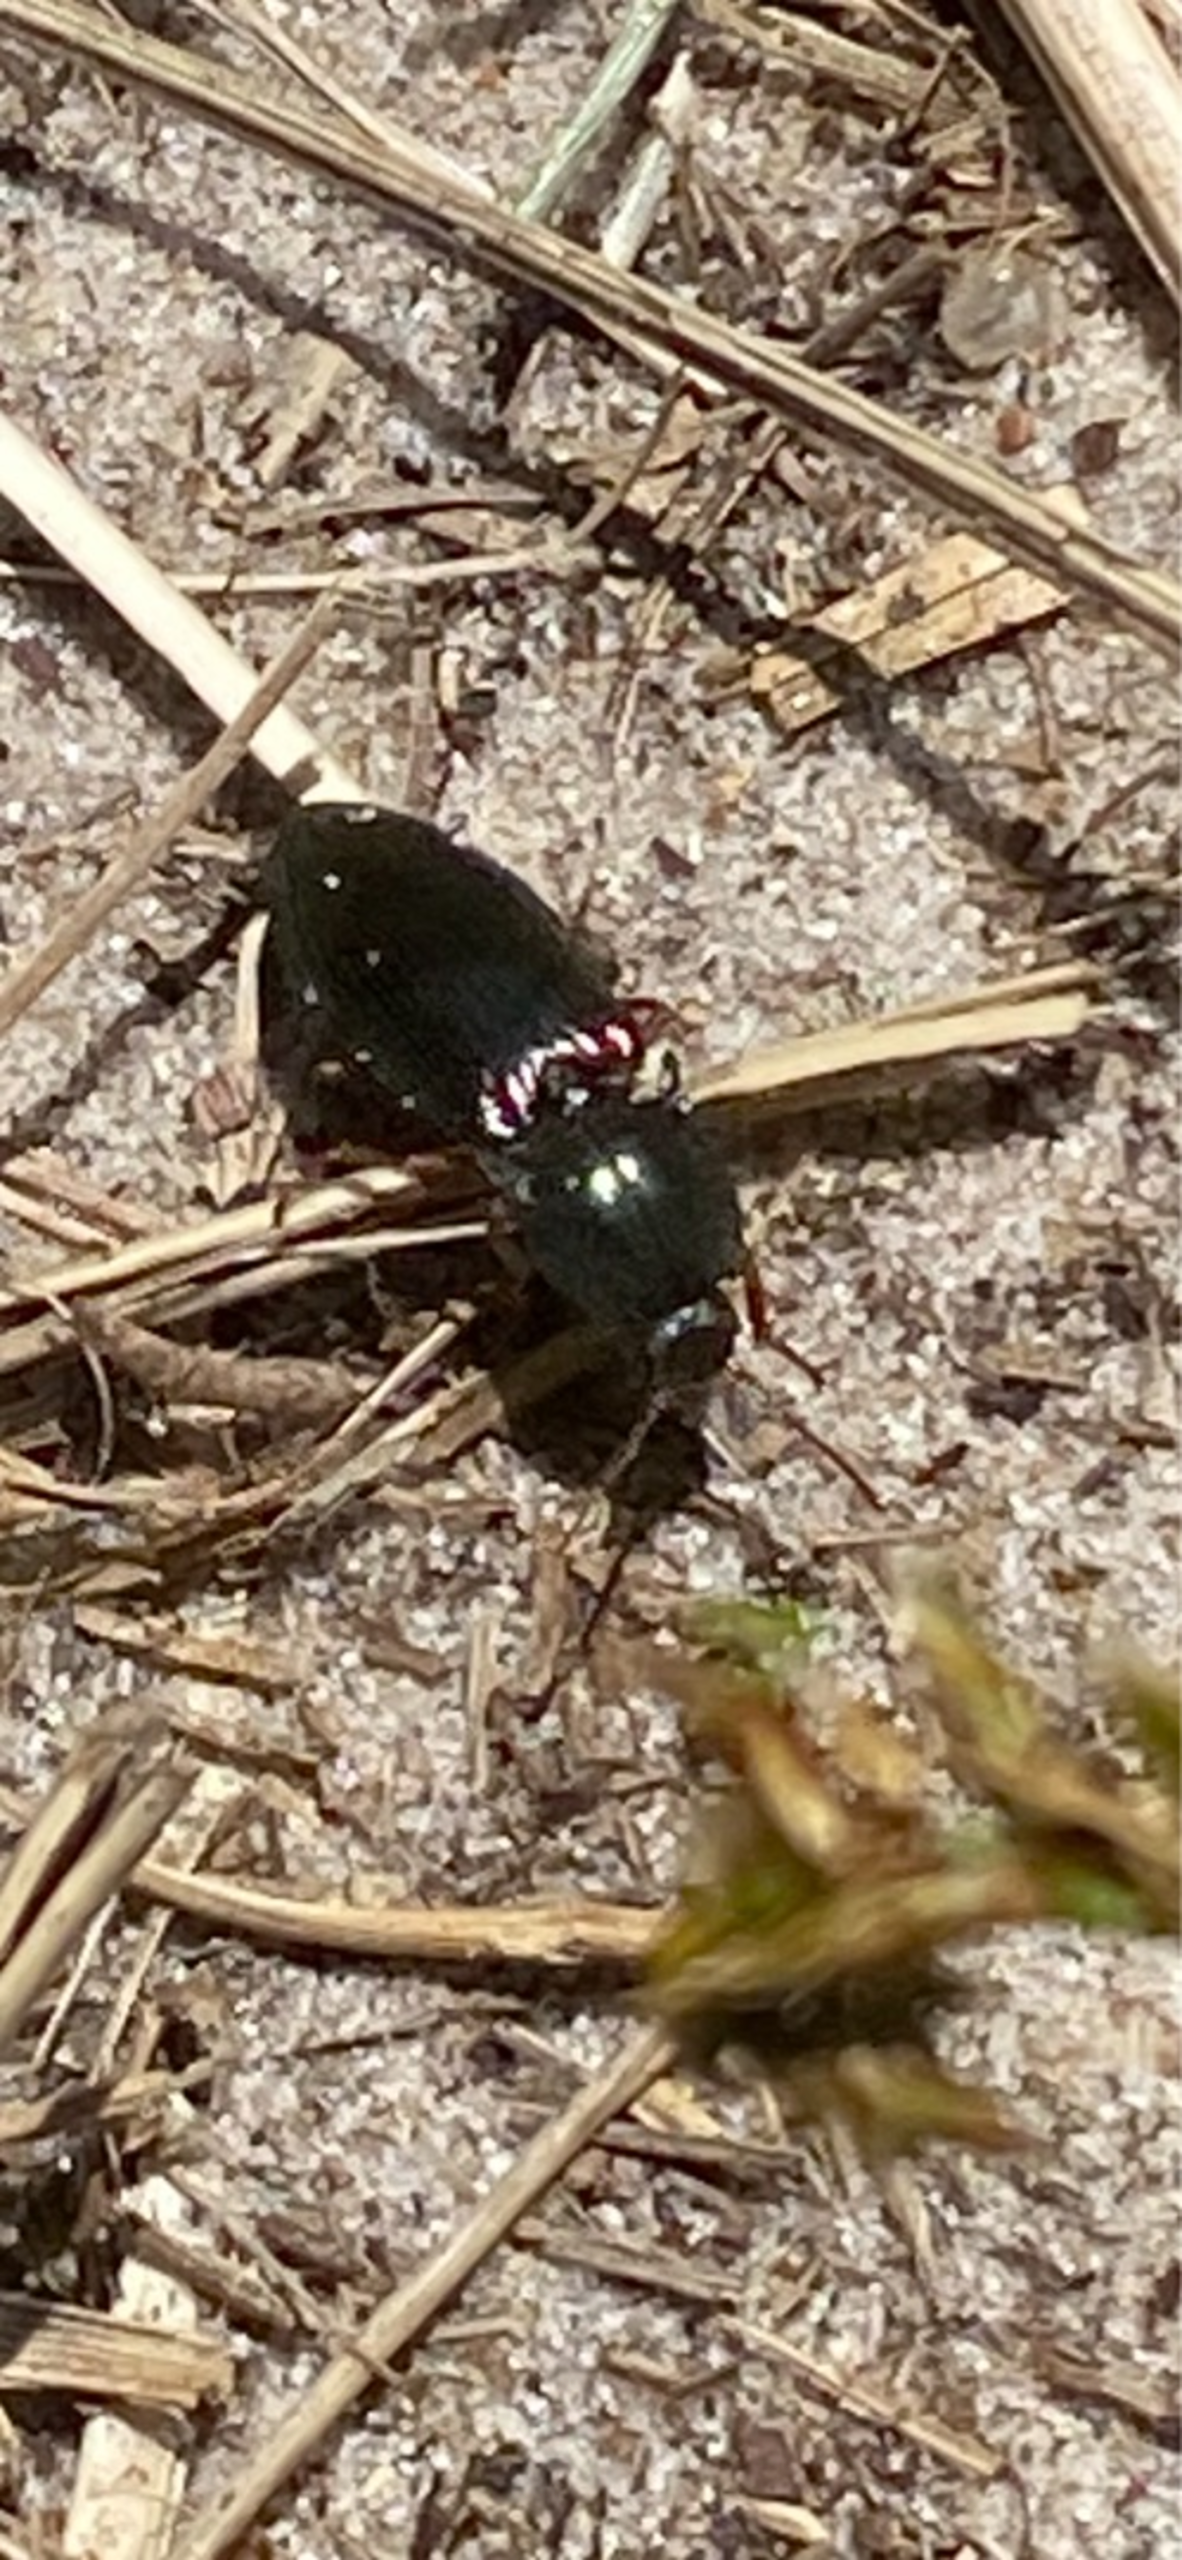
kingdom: Animalia
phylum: Arthropoda
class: Insecta
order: Coleoptera
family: Elateridae
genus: Selatosomus
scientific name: Selatosomus aeneus
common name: Kobbersmælder
